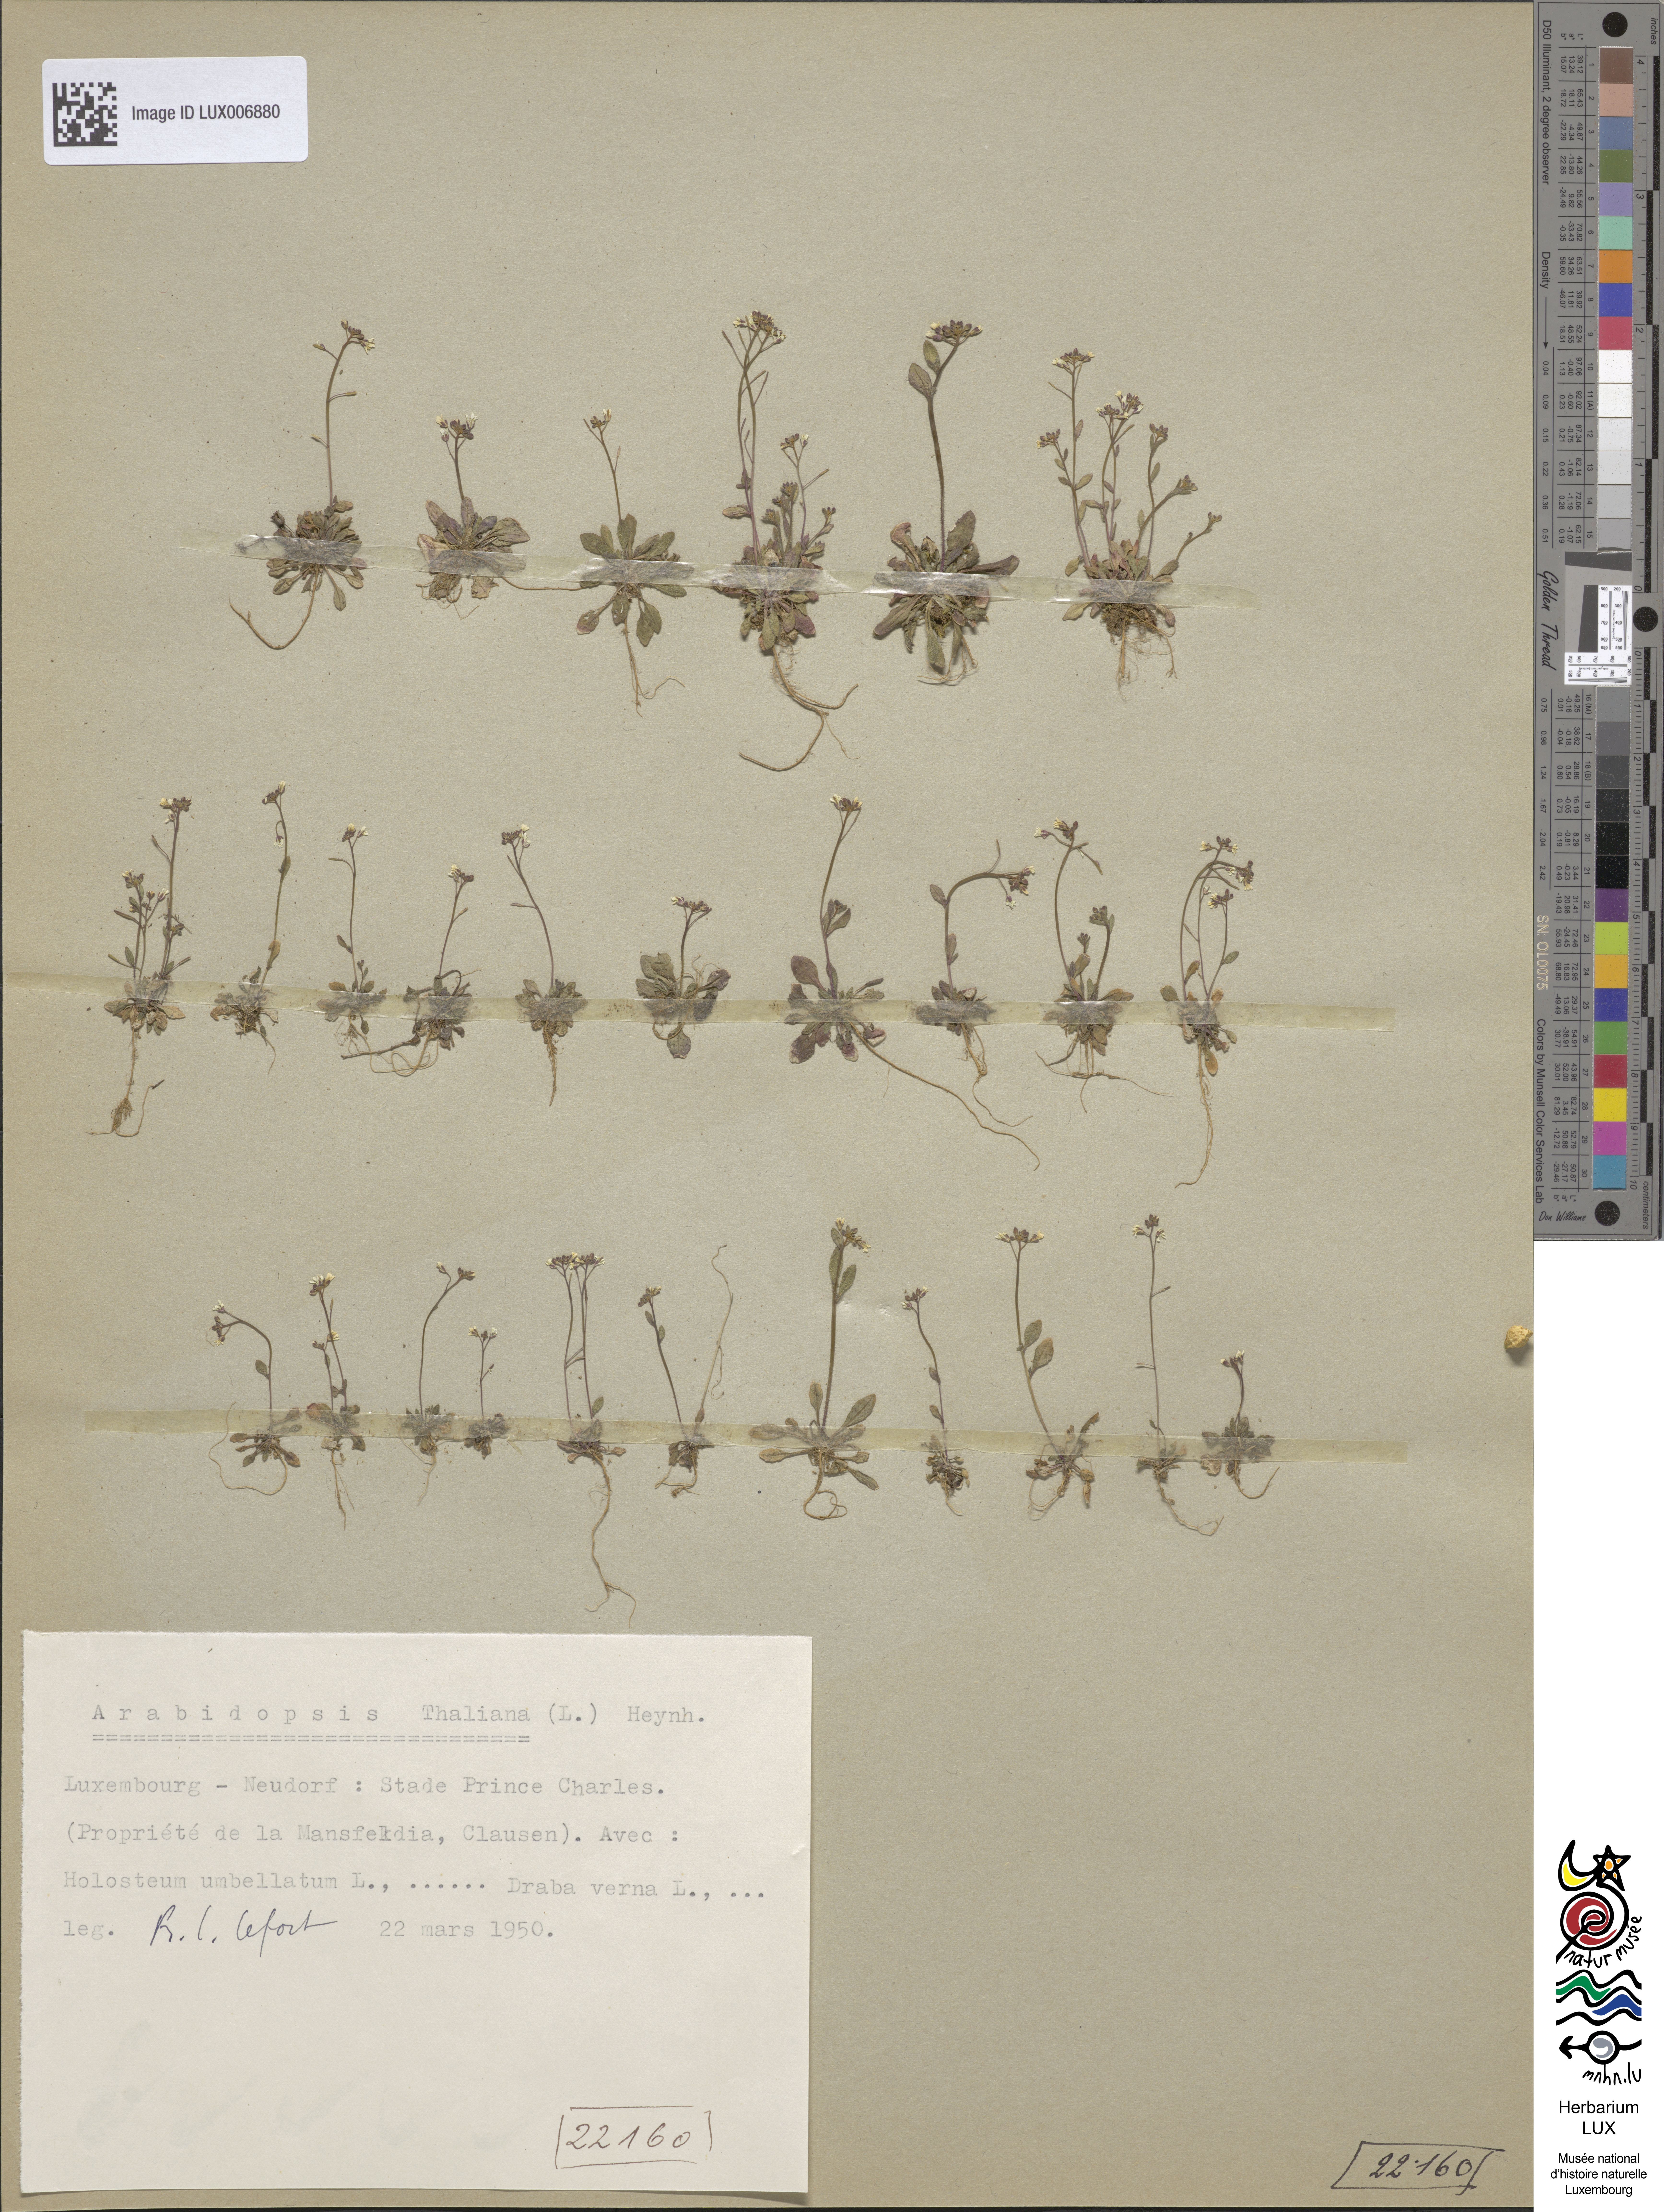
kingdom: Plantae
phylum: Tracheophyta
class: Magnoliopsida
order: Brassicales
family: Brassicaceae
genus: Arabidopsis
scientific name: Arabidopsis thaliana
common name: Thale cress
